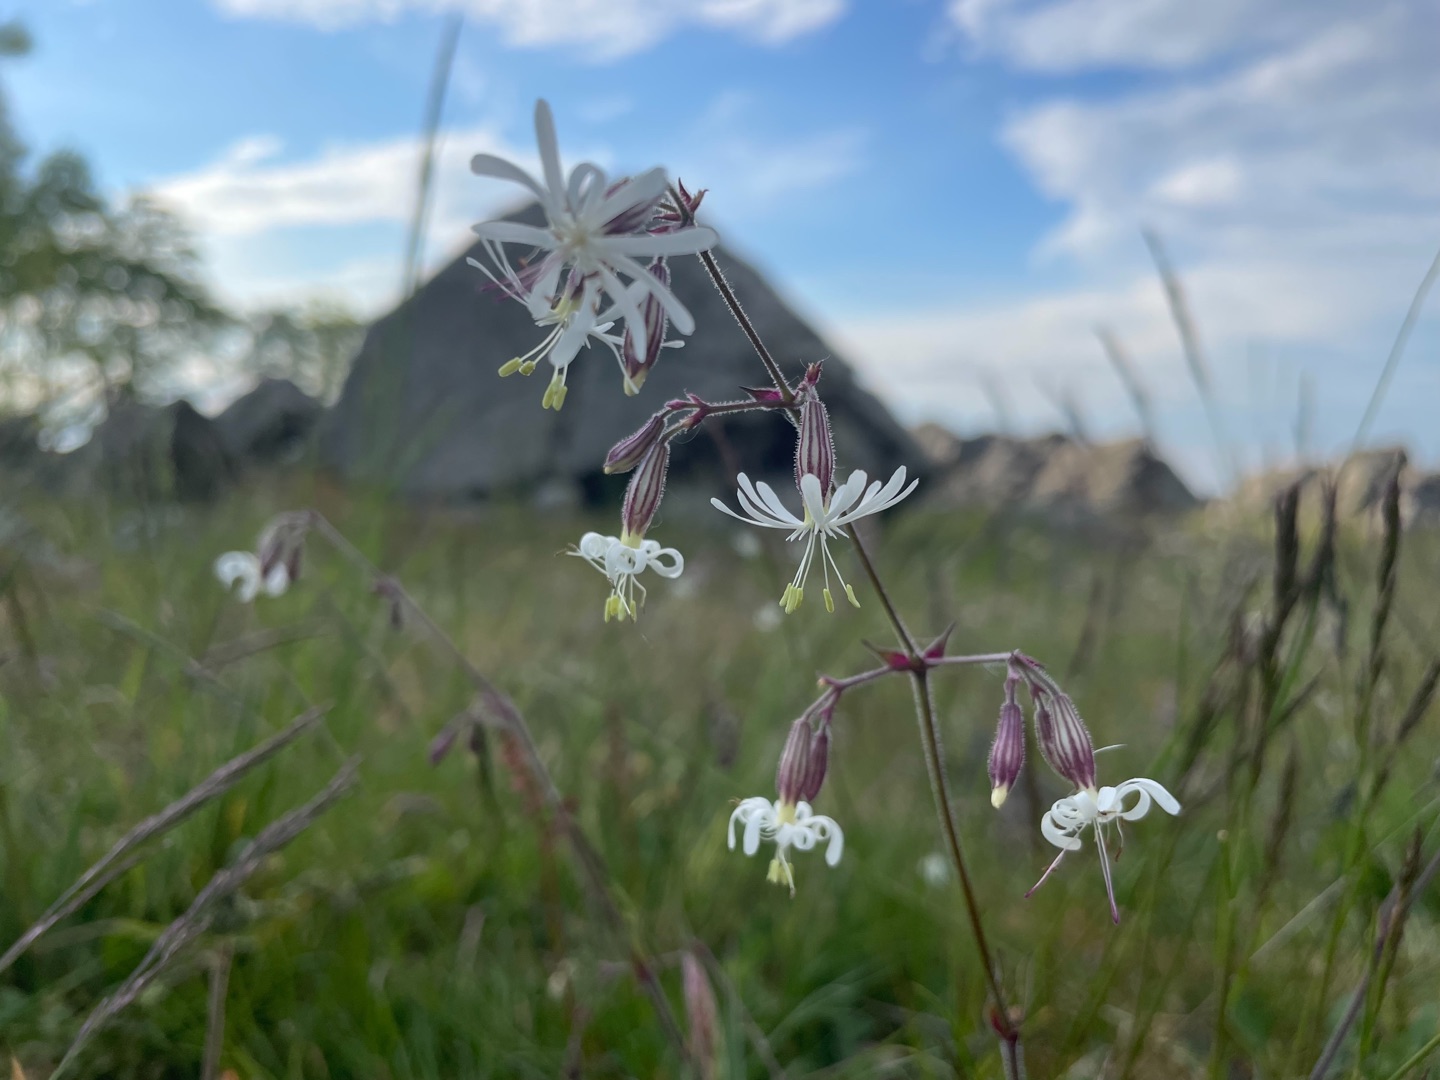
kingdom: Plantae
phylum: Tracheophyta
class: Magnoliopsida
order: Caryophyllales
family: Caryophyllaceae
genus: Silene
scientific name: Silene nutans
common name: Nikkende limurt
